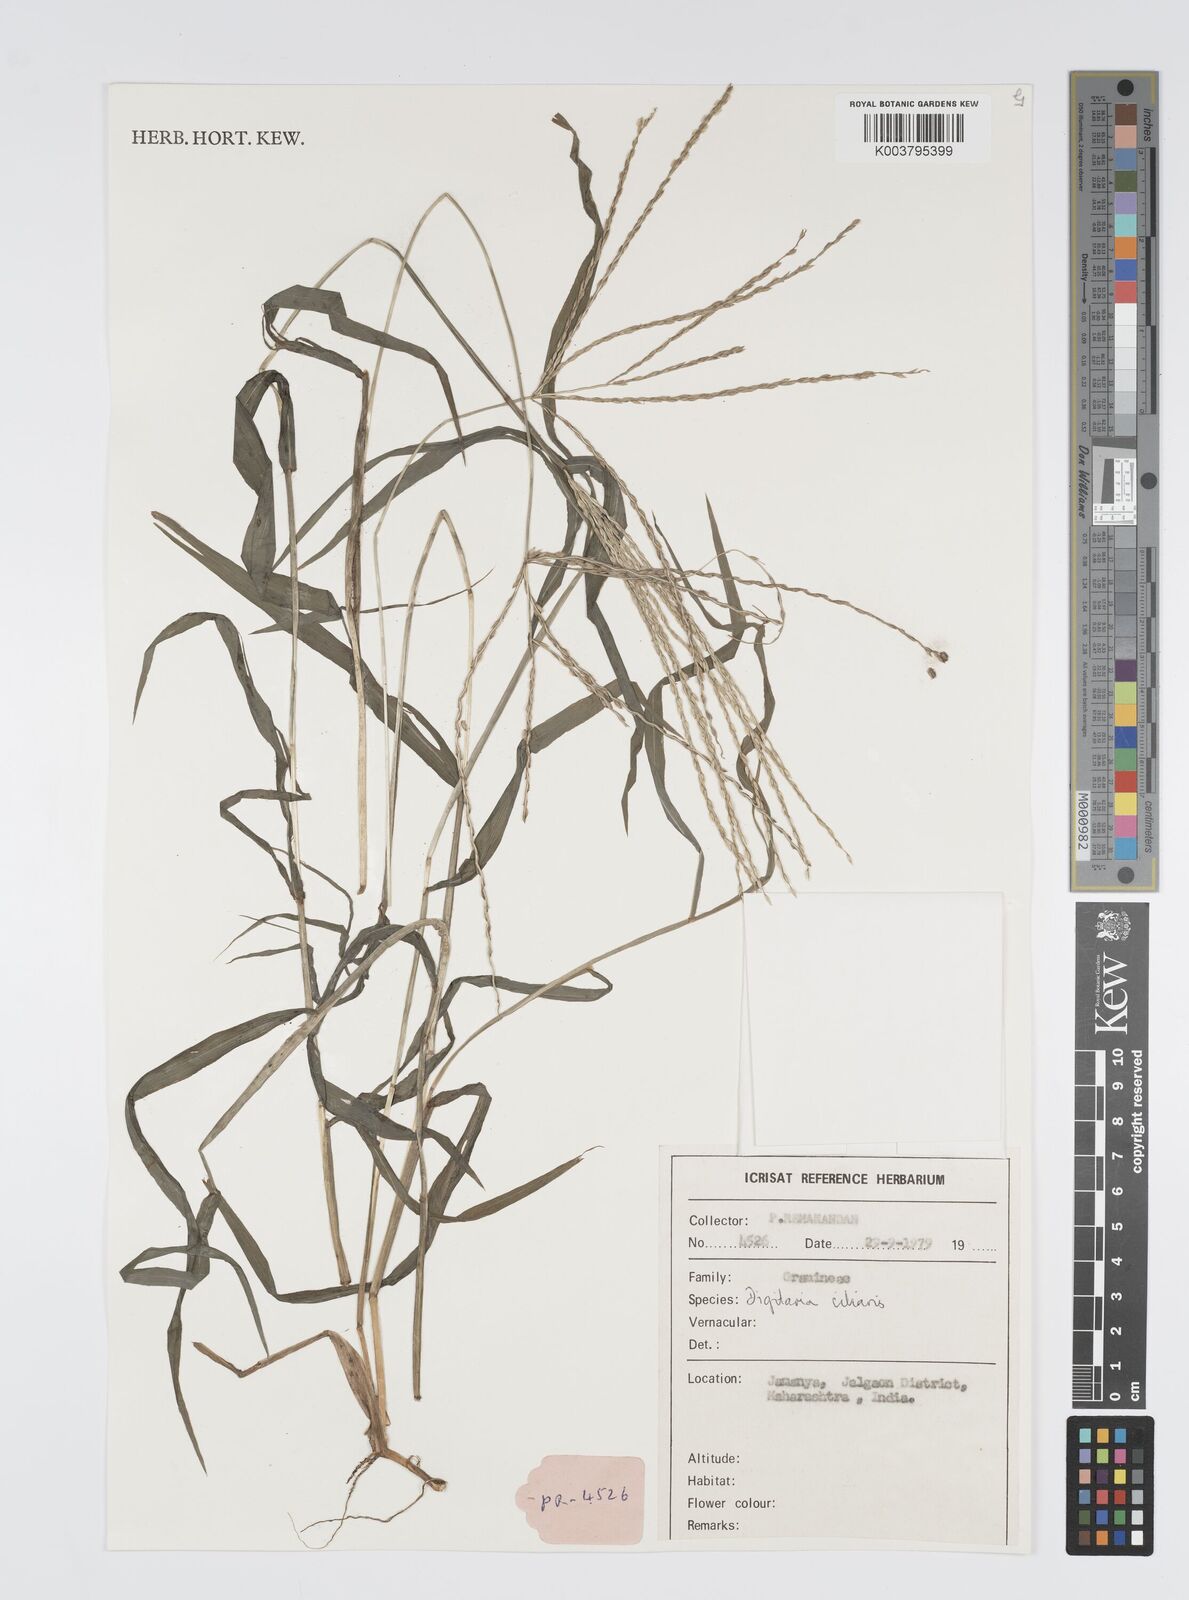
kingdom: Plantae
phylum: Tracheophyta
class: Liliopsida
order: Poales
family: Poaceae
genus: Digitaria
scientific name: Digitaria ciliaris
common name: Tropical finger-grass
